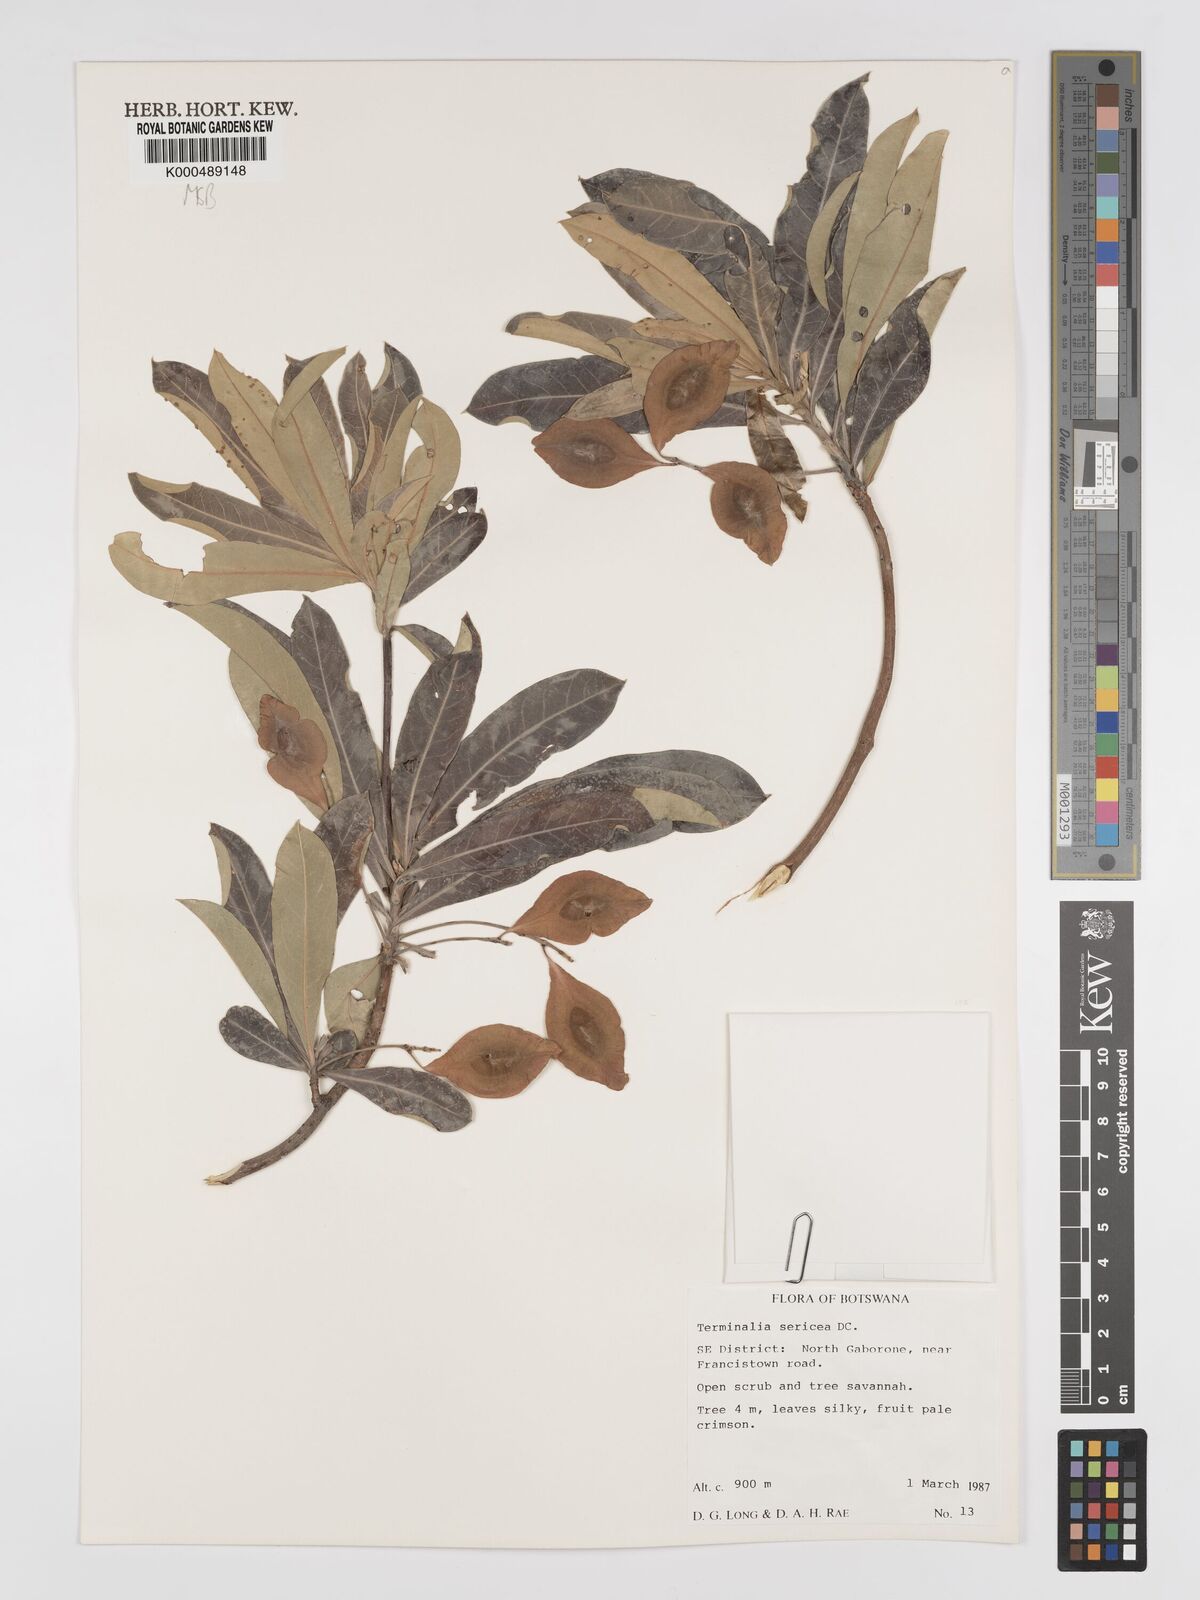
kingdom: Plantae
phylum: Tracheophyta
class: Magnoliopsida
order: Myrtales
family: Combretaceae
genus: Terminalia
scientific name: Terminalia sericea
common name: Clusterleaf
